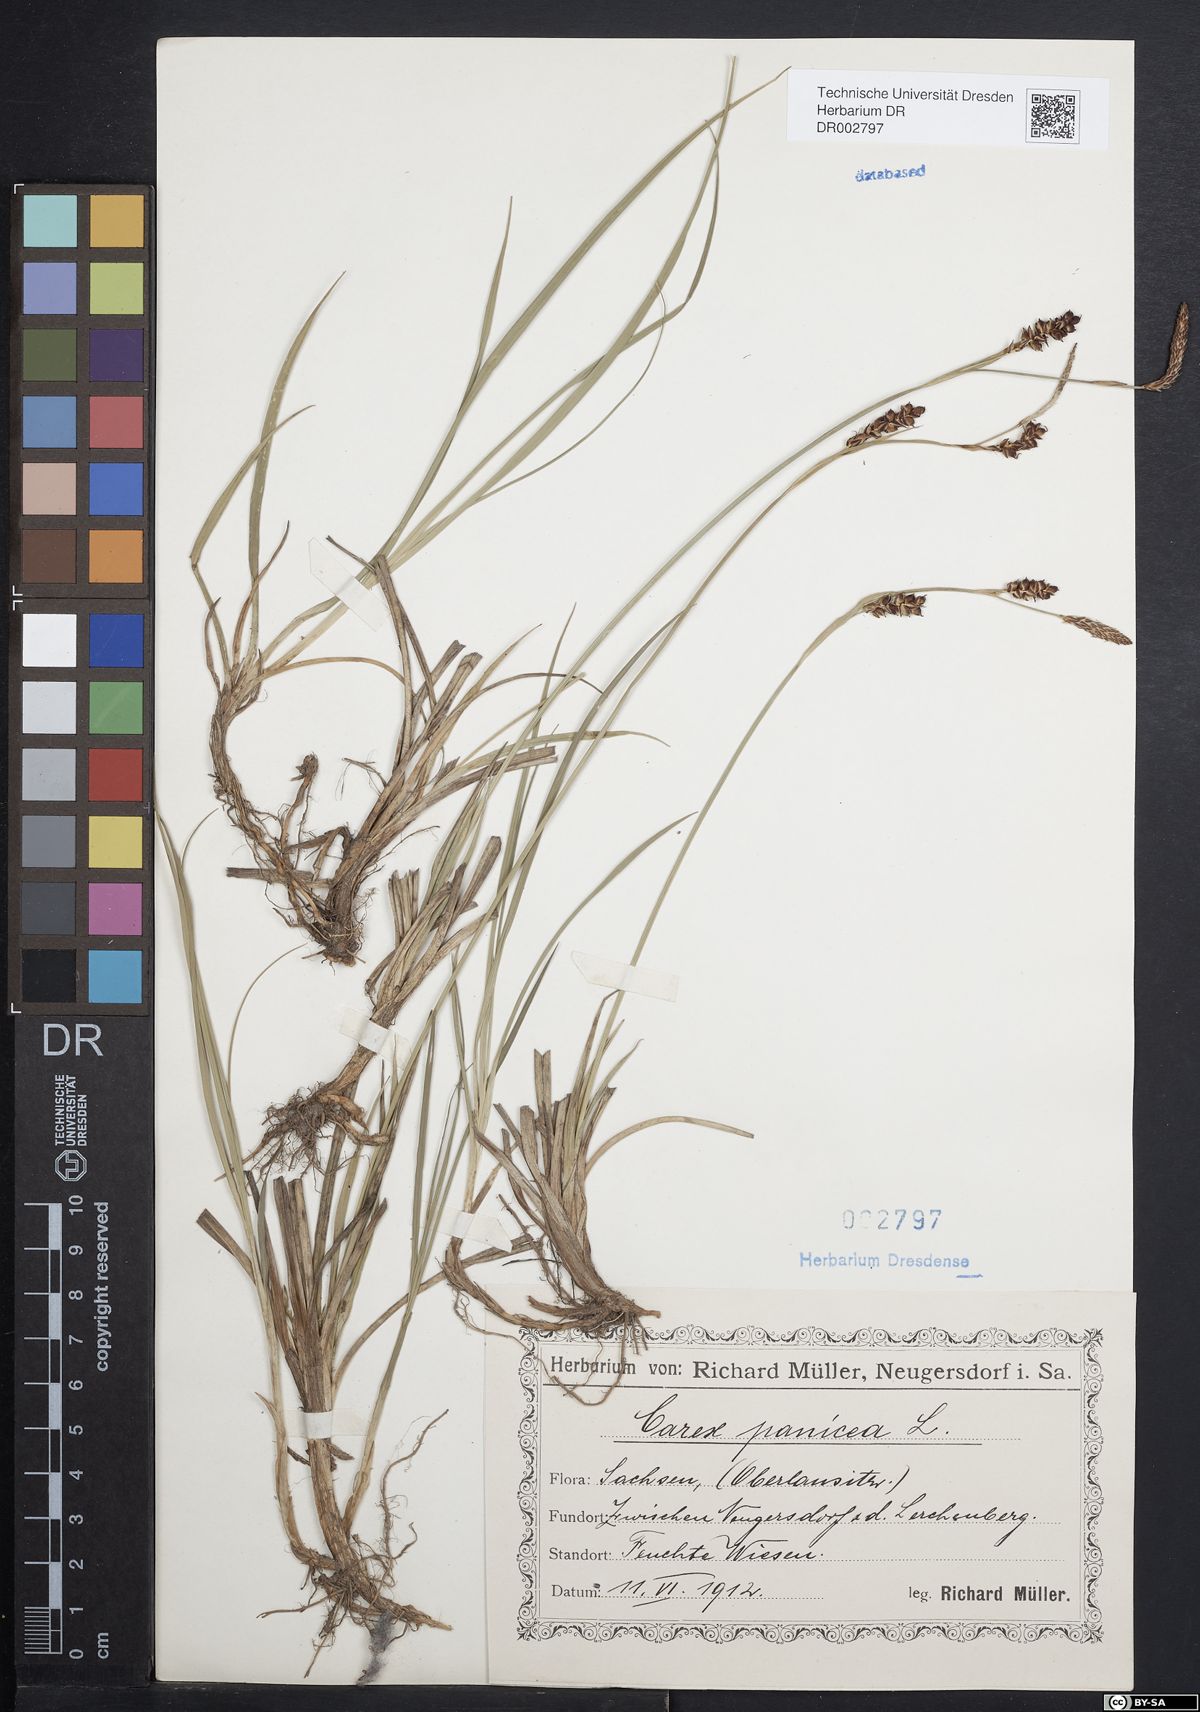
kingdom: Plantae
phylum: Tracheophyta
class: Liliopsida
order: Poales
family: Cyperaceae
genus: Carex
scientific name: Carex panicea
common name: Carnation sedge
